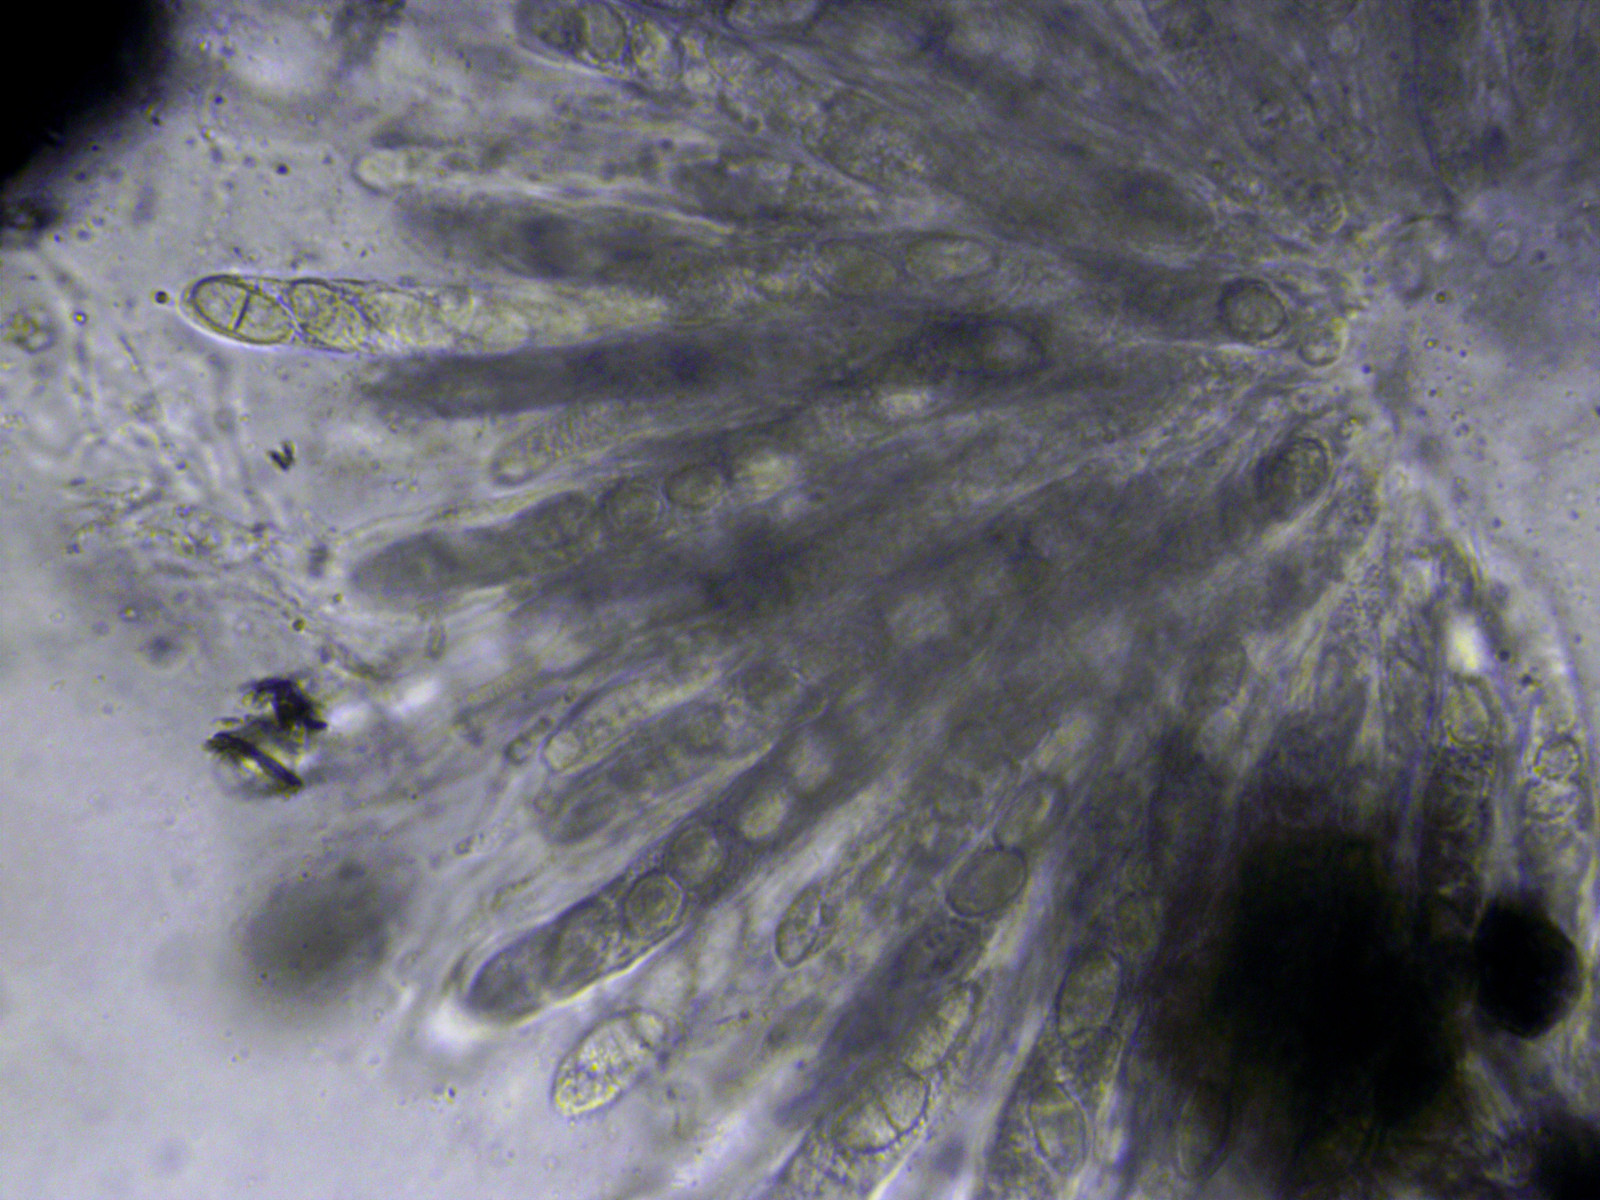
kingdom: Fungi
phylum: Ascomycota
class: Sordariomycetes
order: Hypocreales
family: Nectriaceae
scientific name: Nectriaceae
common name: cinnobersvampfamilien
